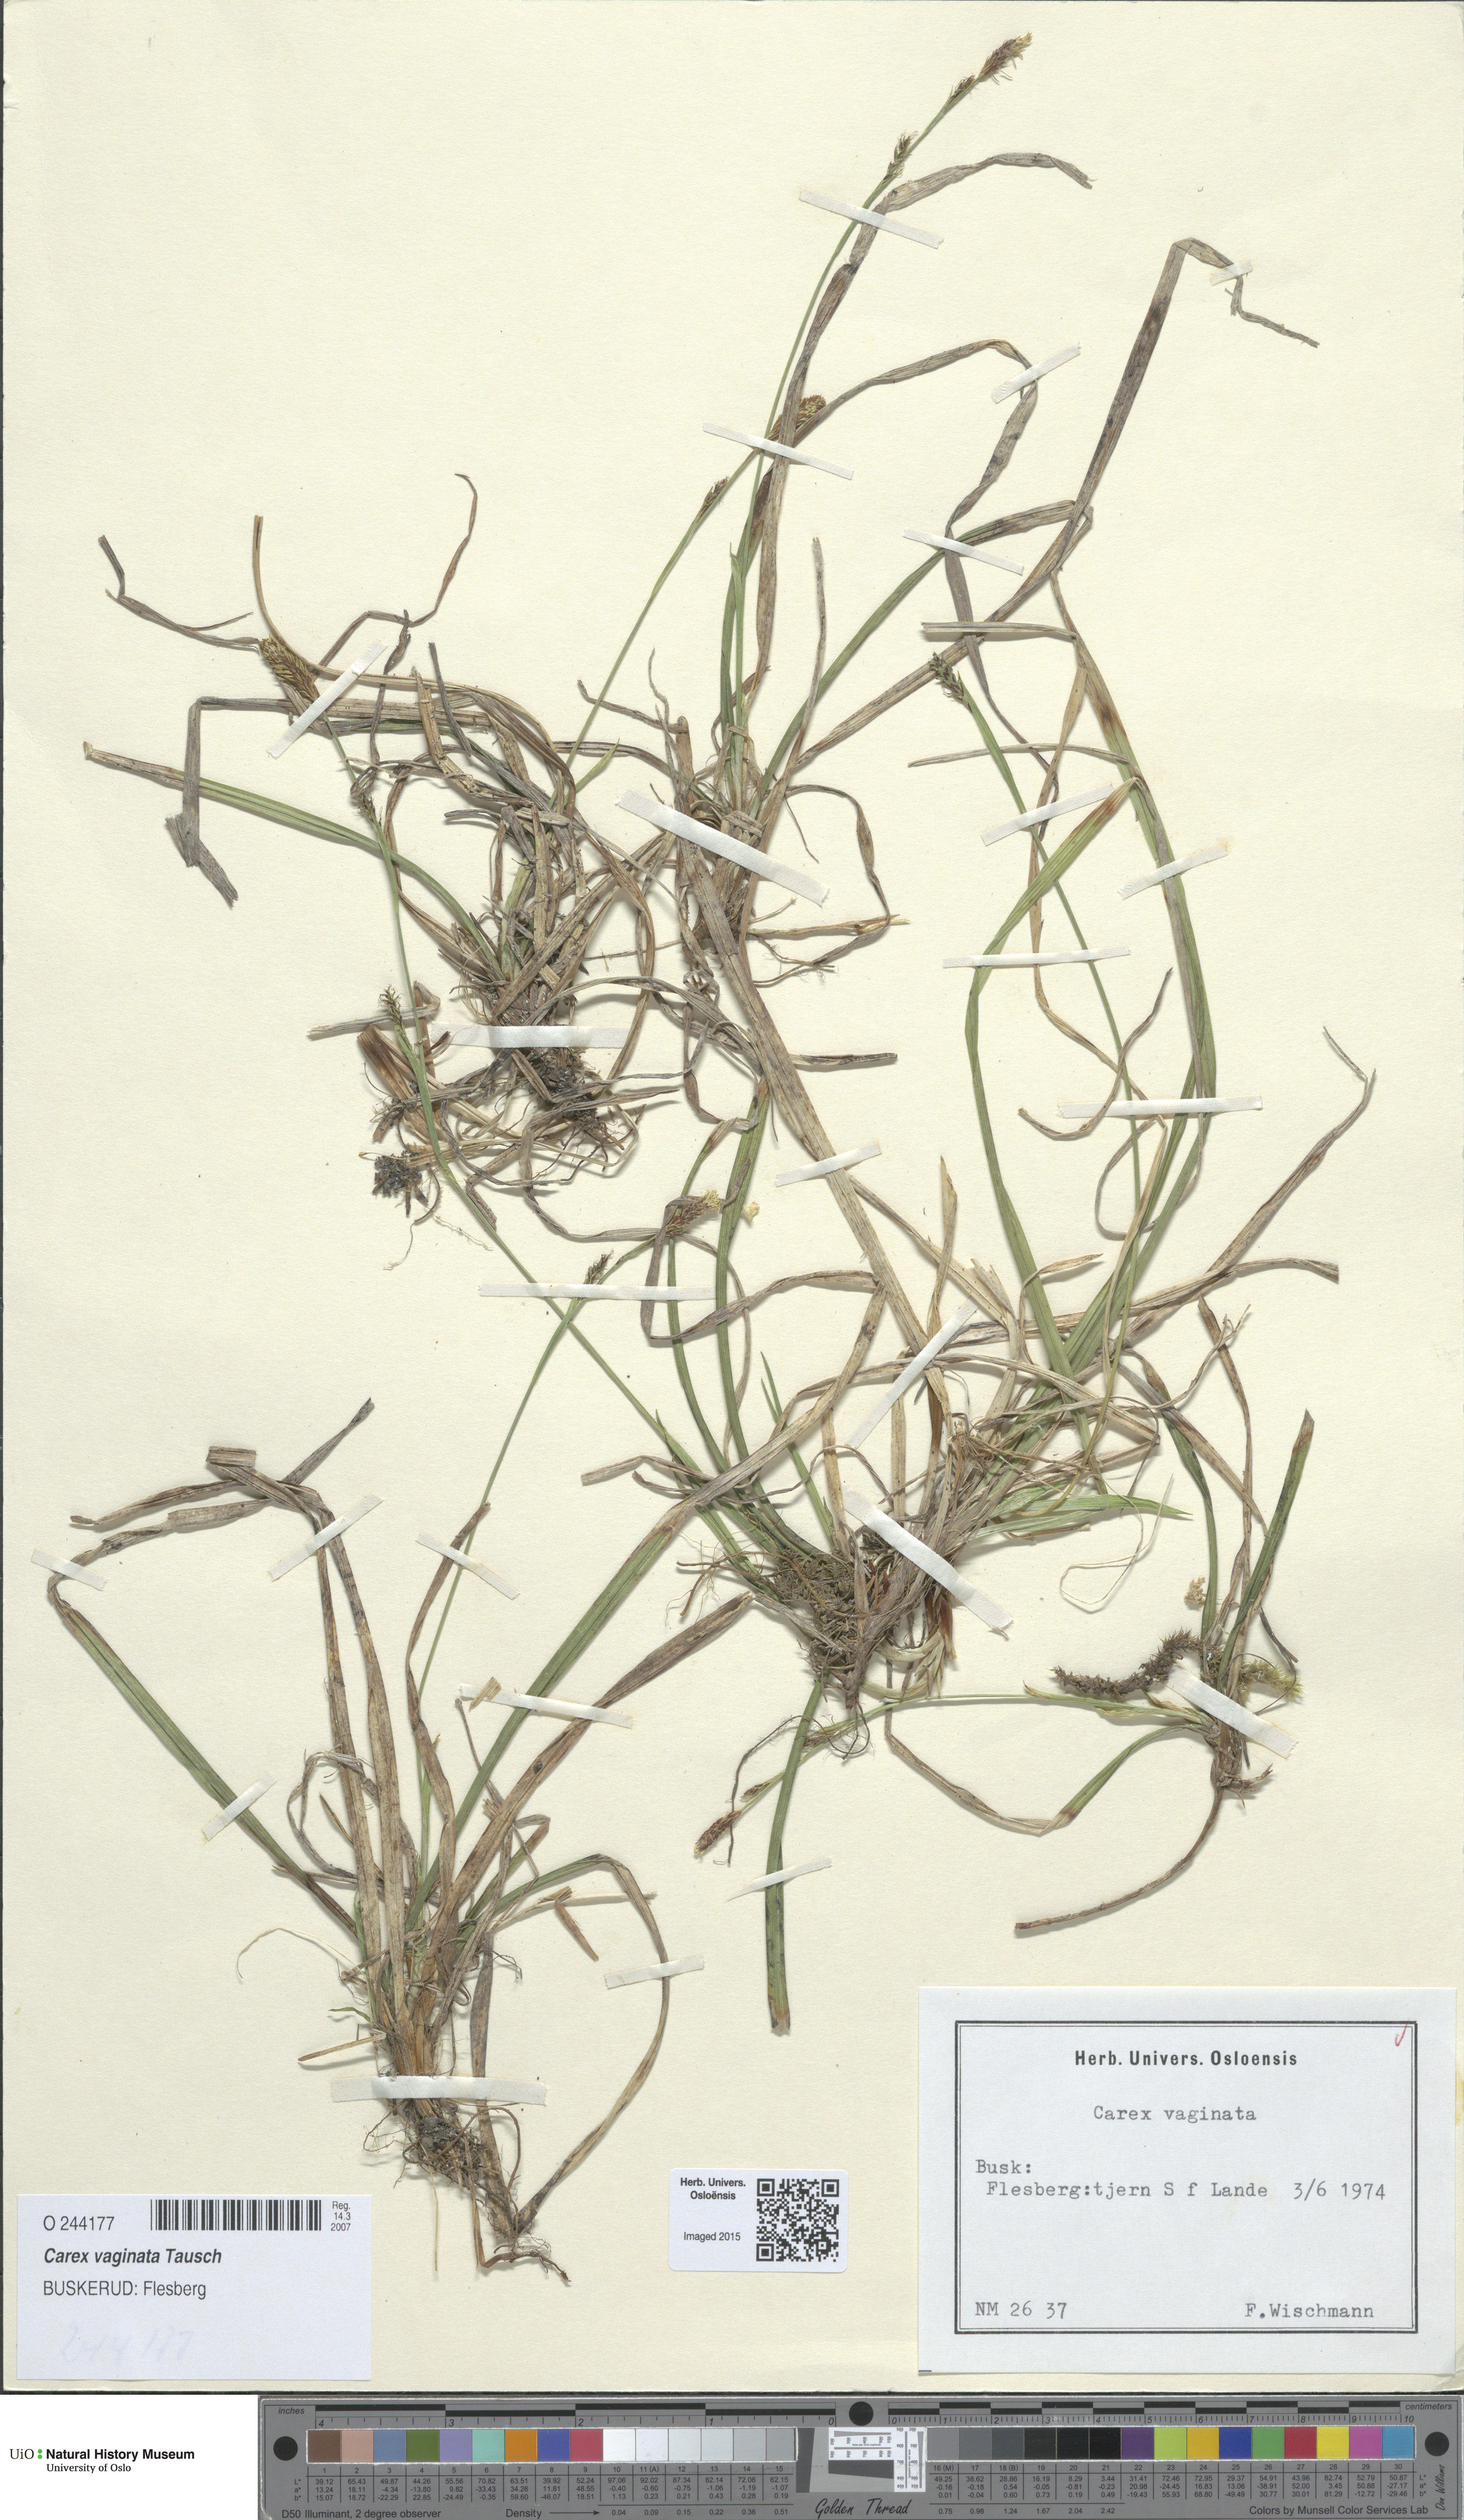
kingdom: Plantae
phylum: Tracheophyta
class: Liliopsida
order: Poales
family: Cyperaceae
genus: Carex
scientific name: Carex vaginata
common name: Sheathed sedge
